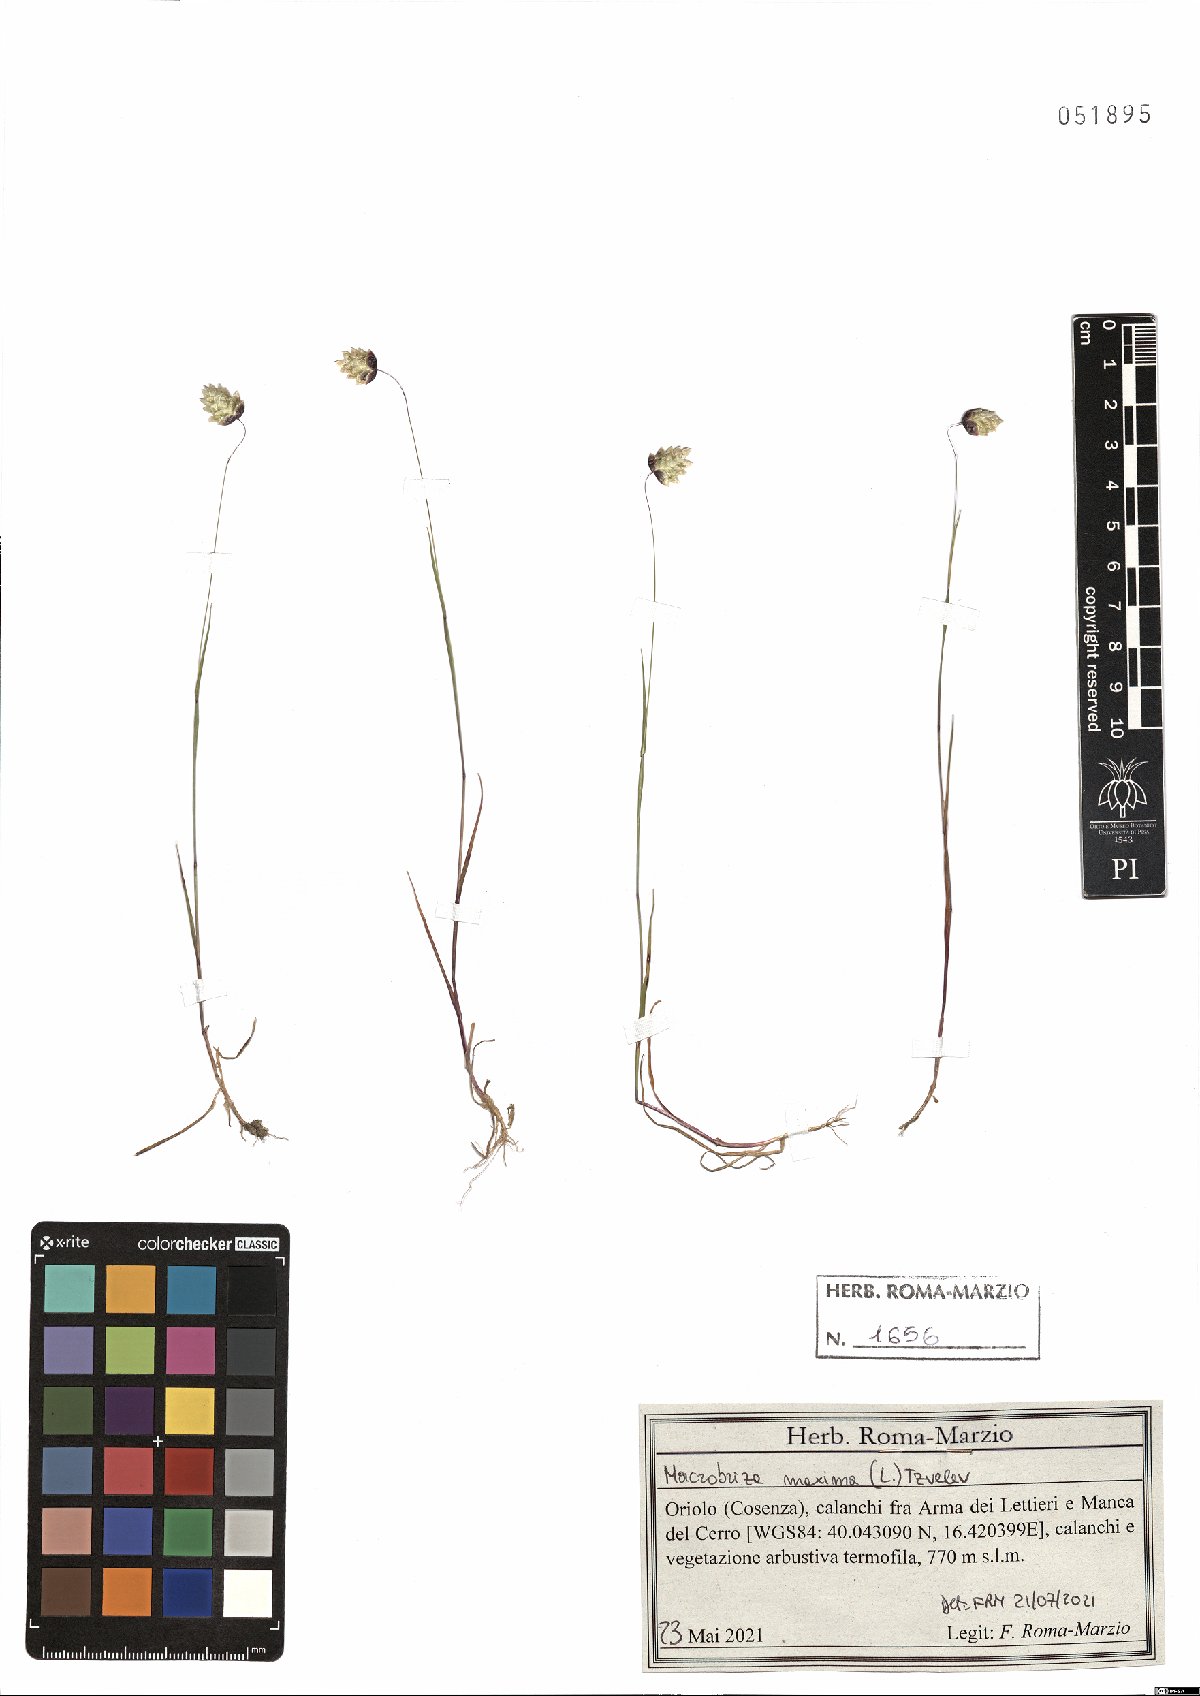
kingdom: Plantae
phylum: Tracheophyta
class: Liliopsida
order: Poales
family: Poaceae
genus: Briza
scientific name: Briza maxima
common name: Big quakinggrass
